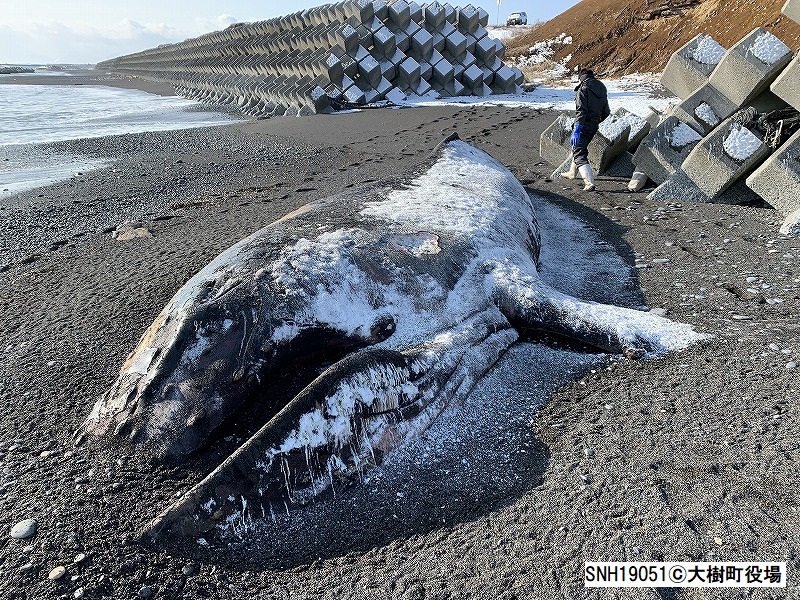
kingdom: Animalia
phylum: Chordata
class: Mammalia
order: Cetacea
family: Balaenopteridae
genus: Megaptera
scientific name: Megaptera novaeangliae
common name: Humpback whale
